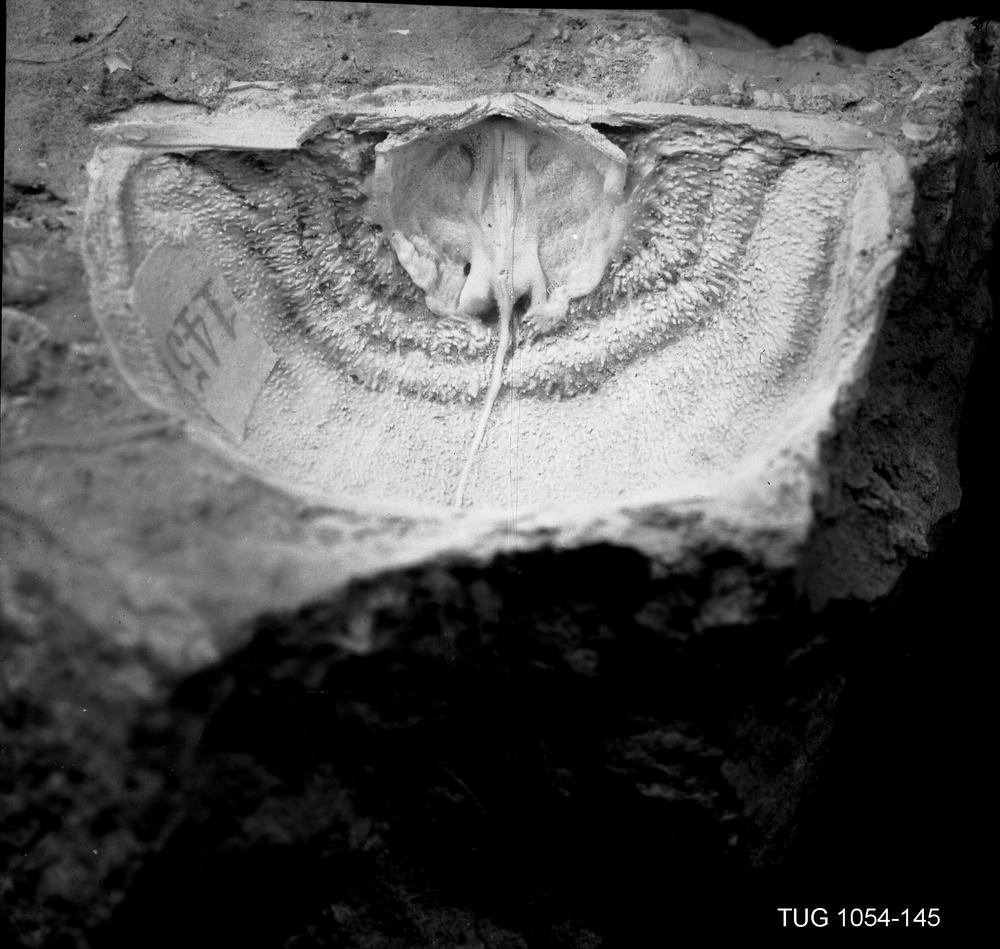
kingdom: Animalia
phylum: Brachiopoda
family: Leptaenidae
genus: Septomena
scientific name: Septomena Leptaena juvenilis
